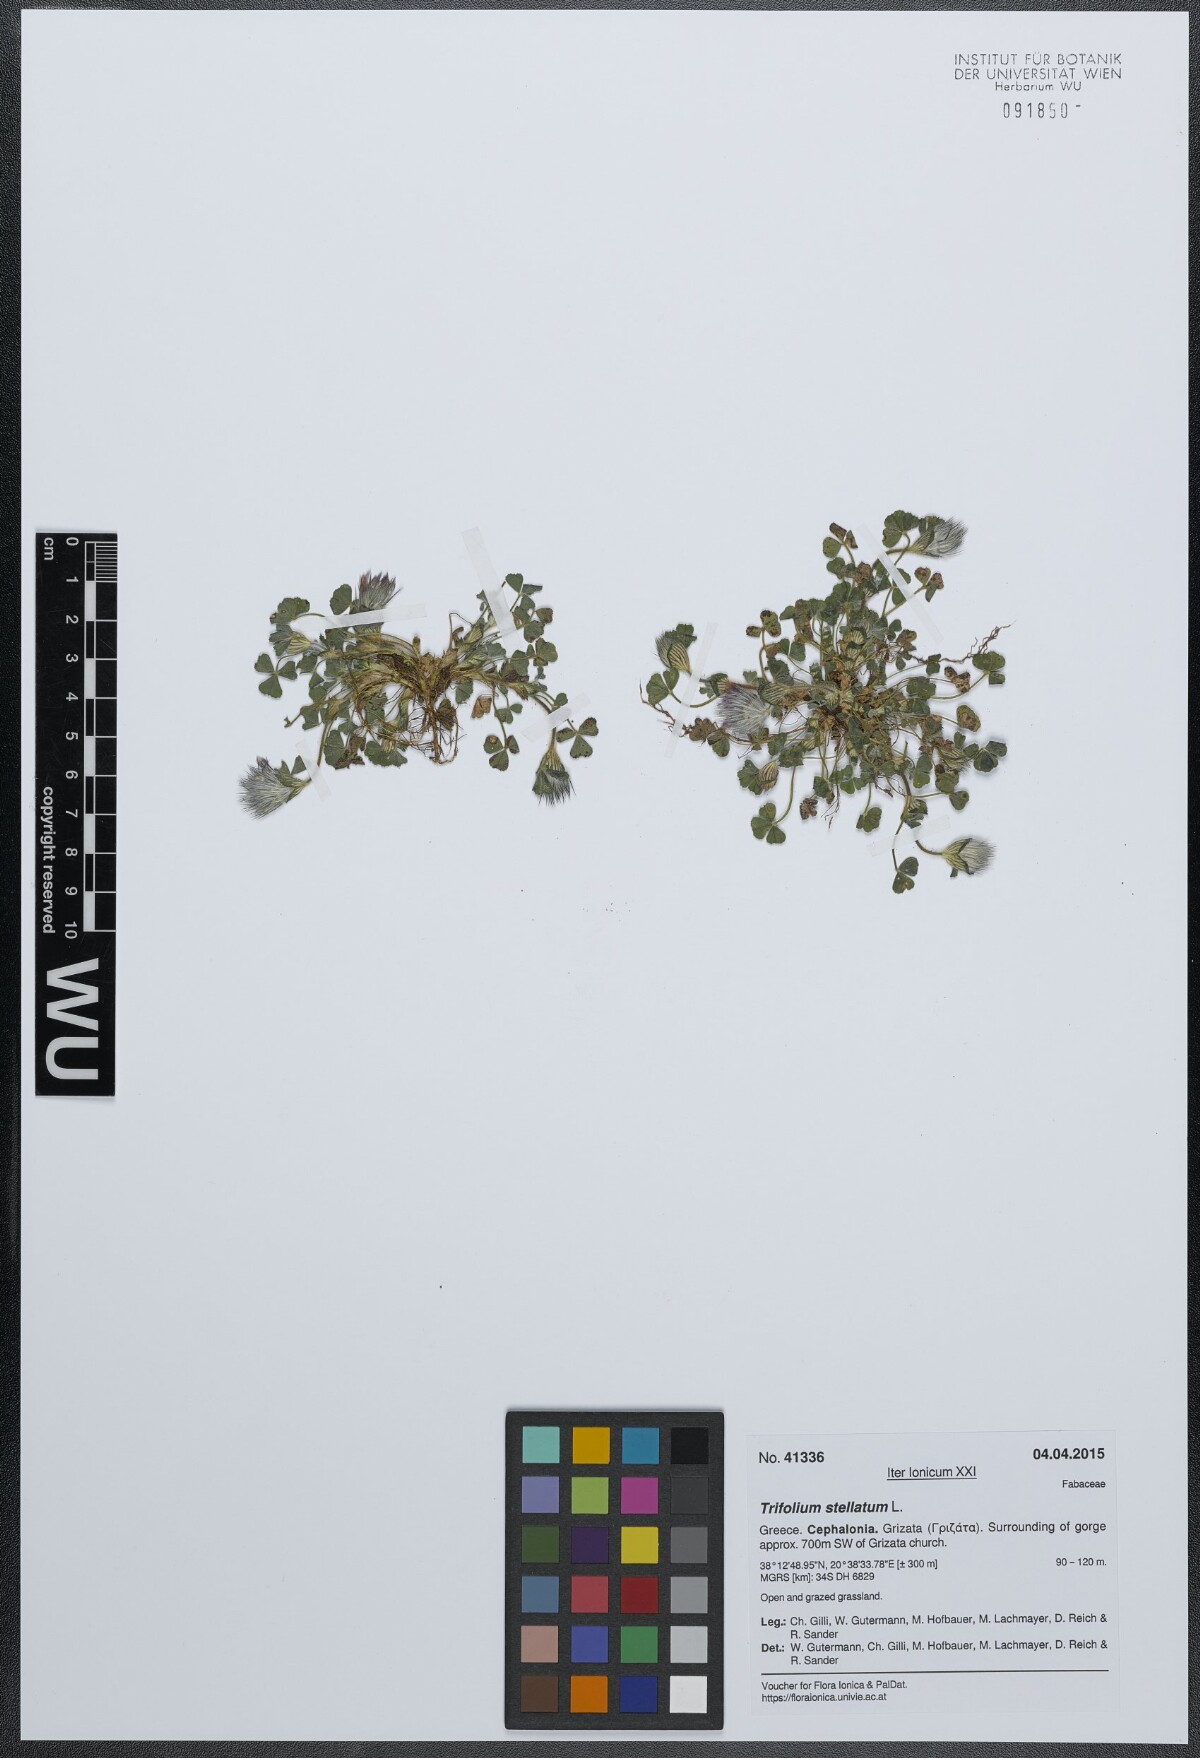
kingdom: Plantae
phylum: Tracheophyta
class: Magnoliopsida
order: Fabales
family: Fabaceae
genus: Trifolium
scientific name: Trifolium stellatum
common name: Starry clover
